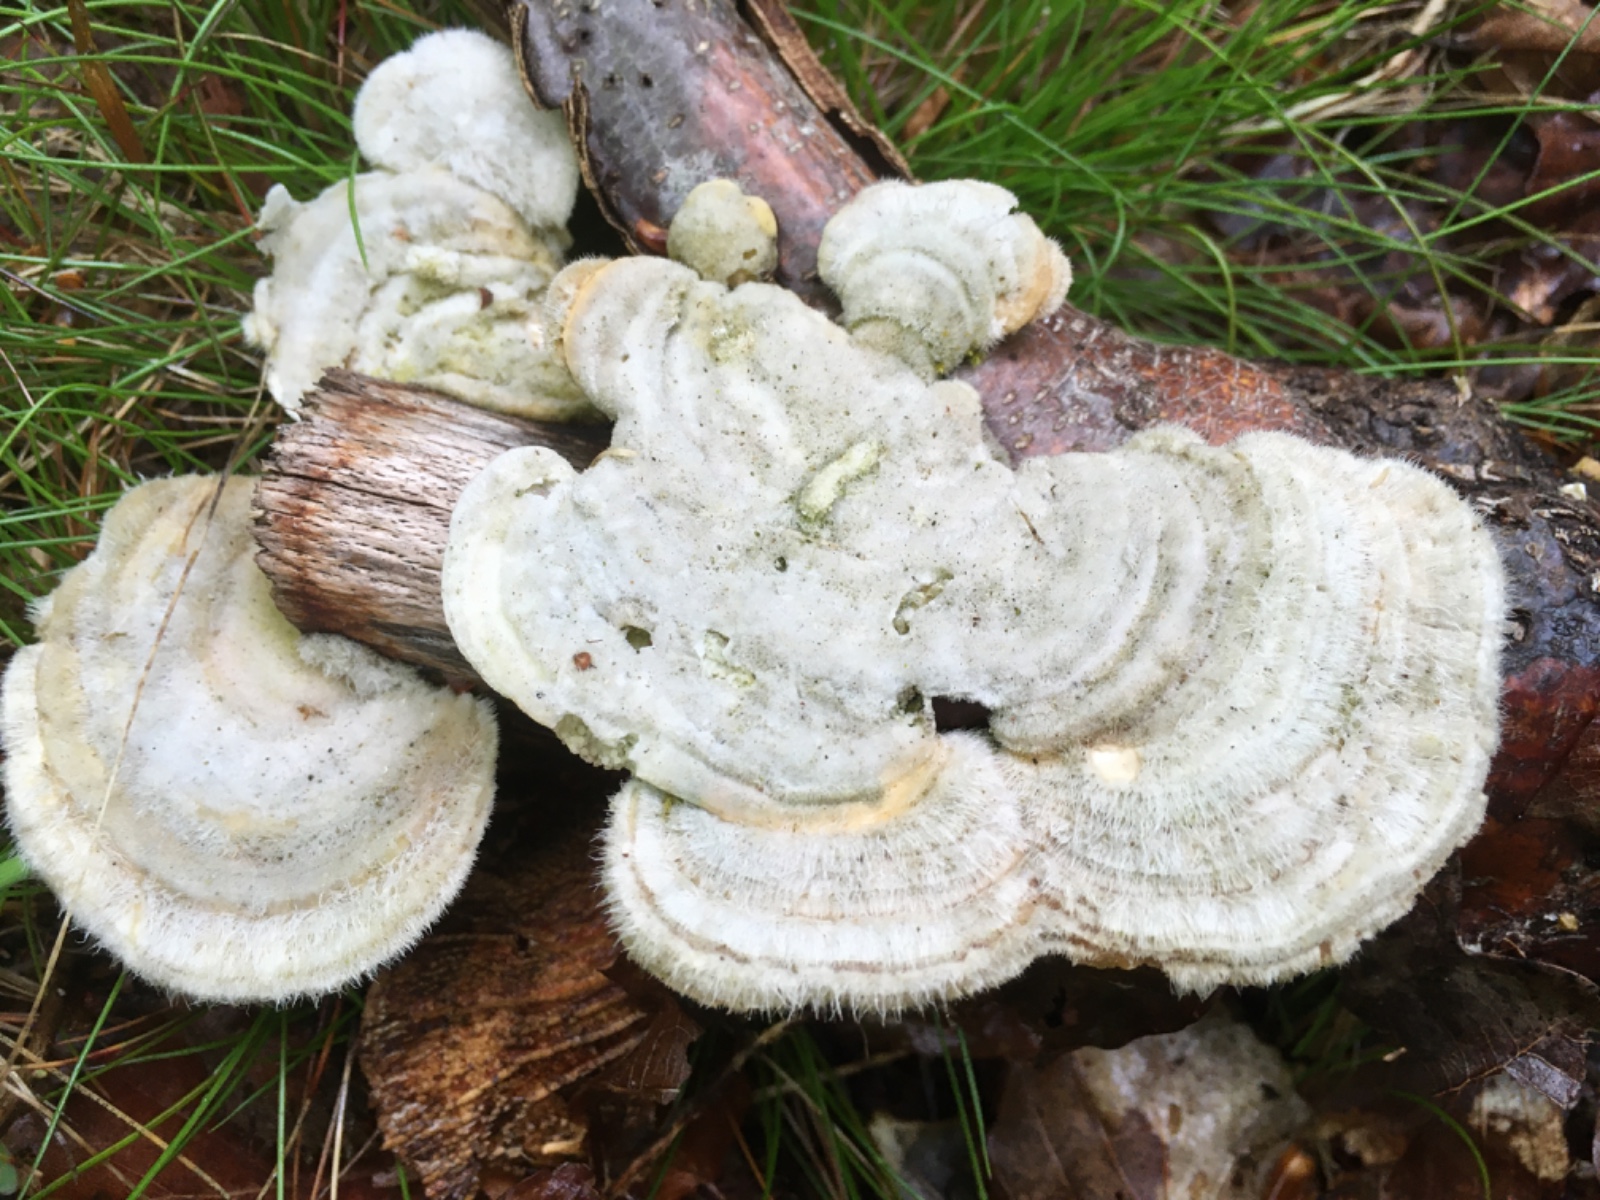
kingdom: Fungi
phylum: Basidiomycota
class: Agaricomycetes
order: Polyporales
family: Polyporaceae
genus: Trametes
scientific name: Trametes hirsuta
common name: håret læderporesvamp
